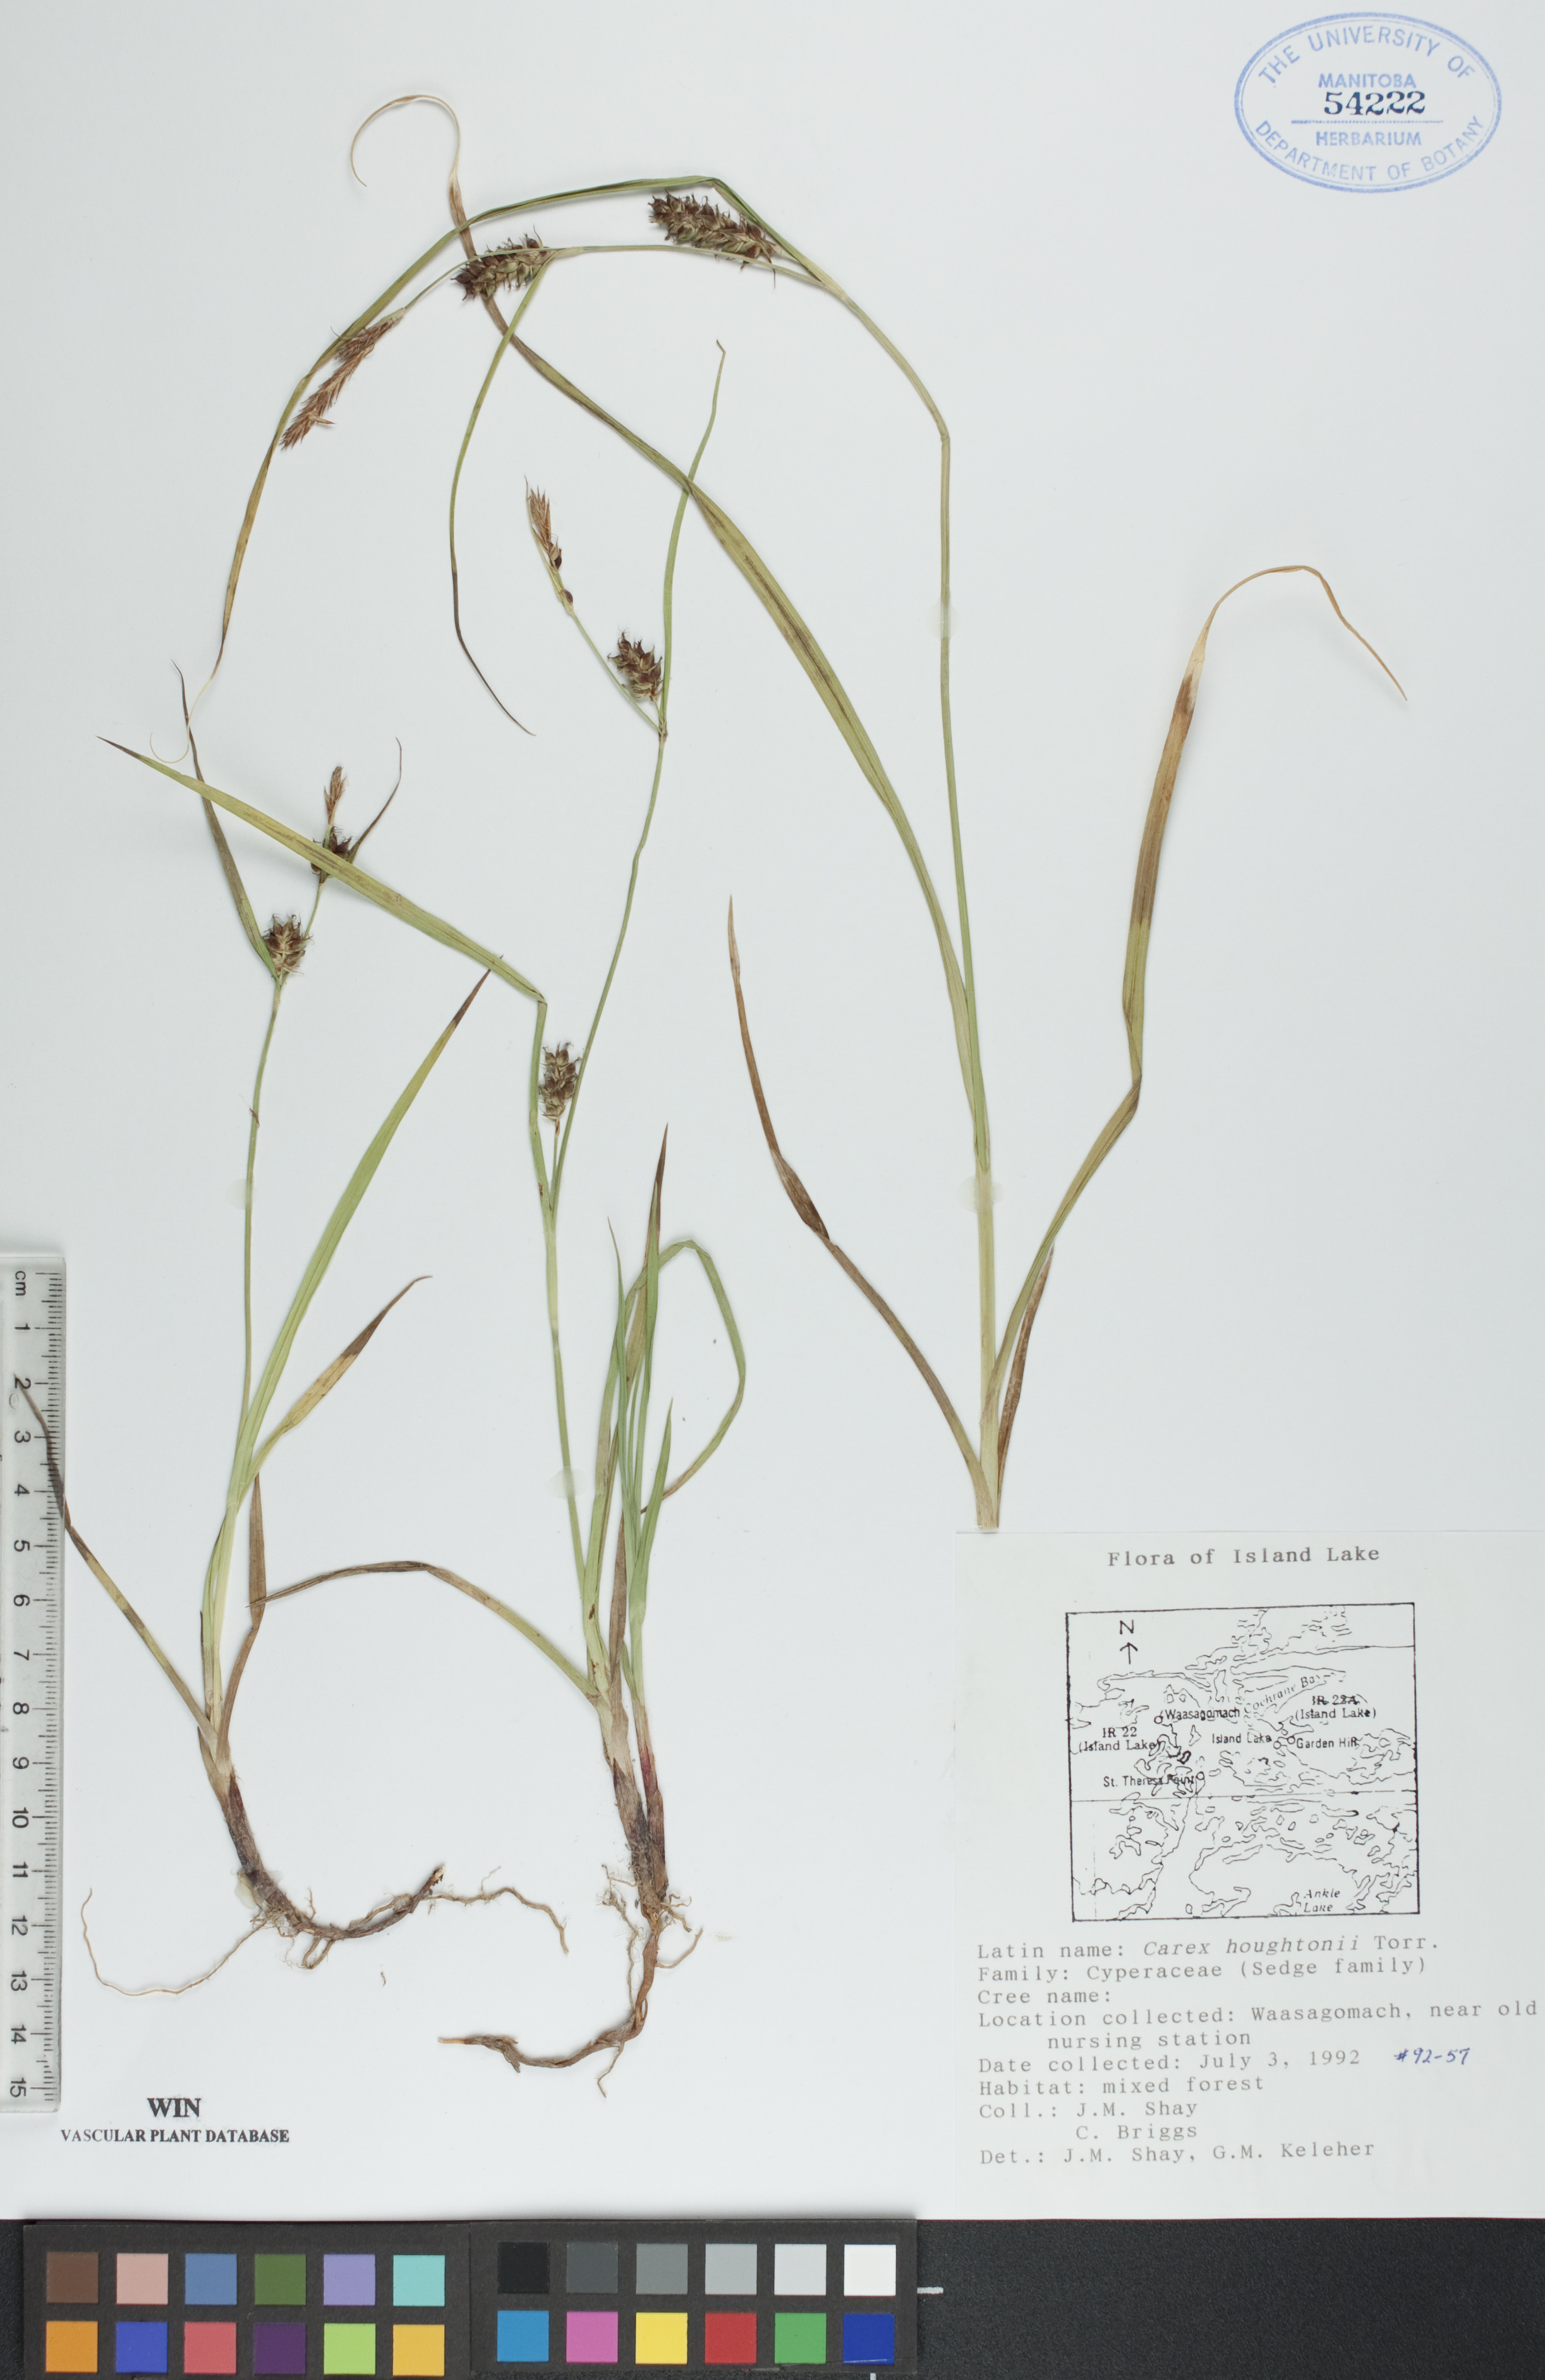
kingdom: Plantae
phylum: Tracheophyta
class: Liliopsida
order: Poales
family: Cyperaceae
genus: Carex
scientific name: Carex houghtoniana
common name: Houghton's sedge
